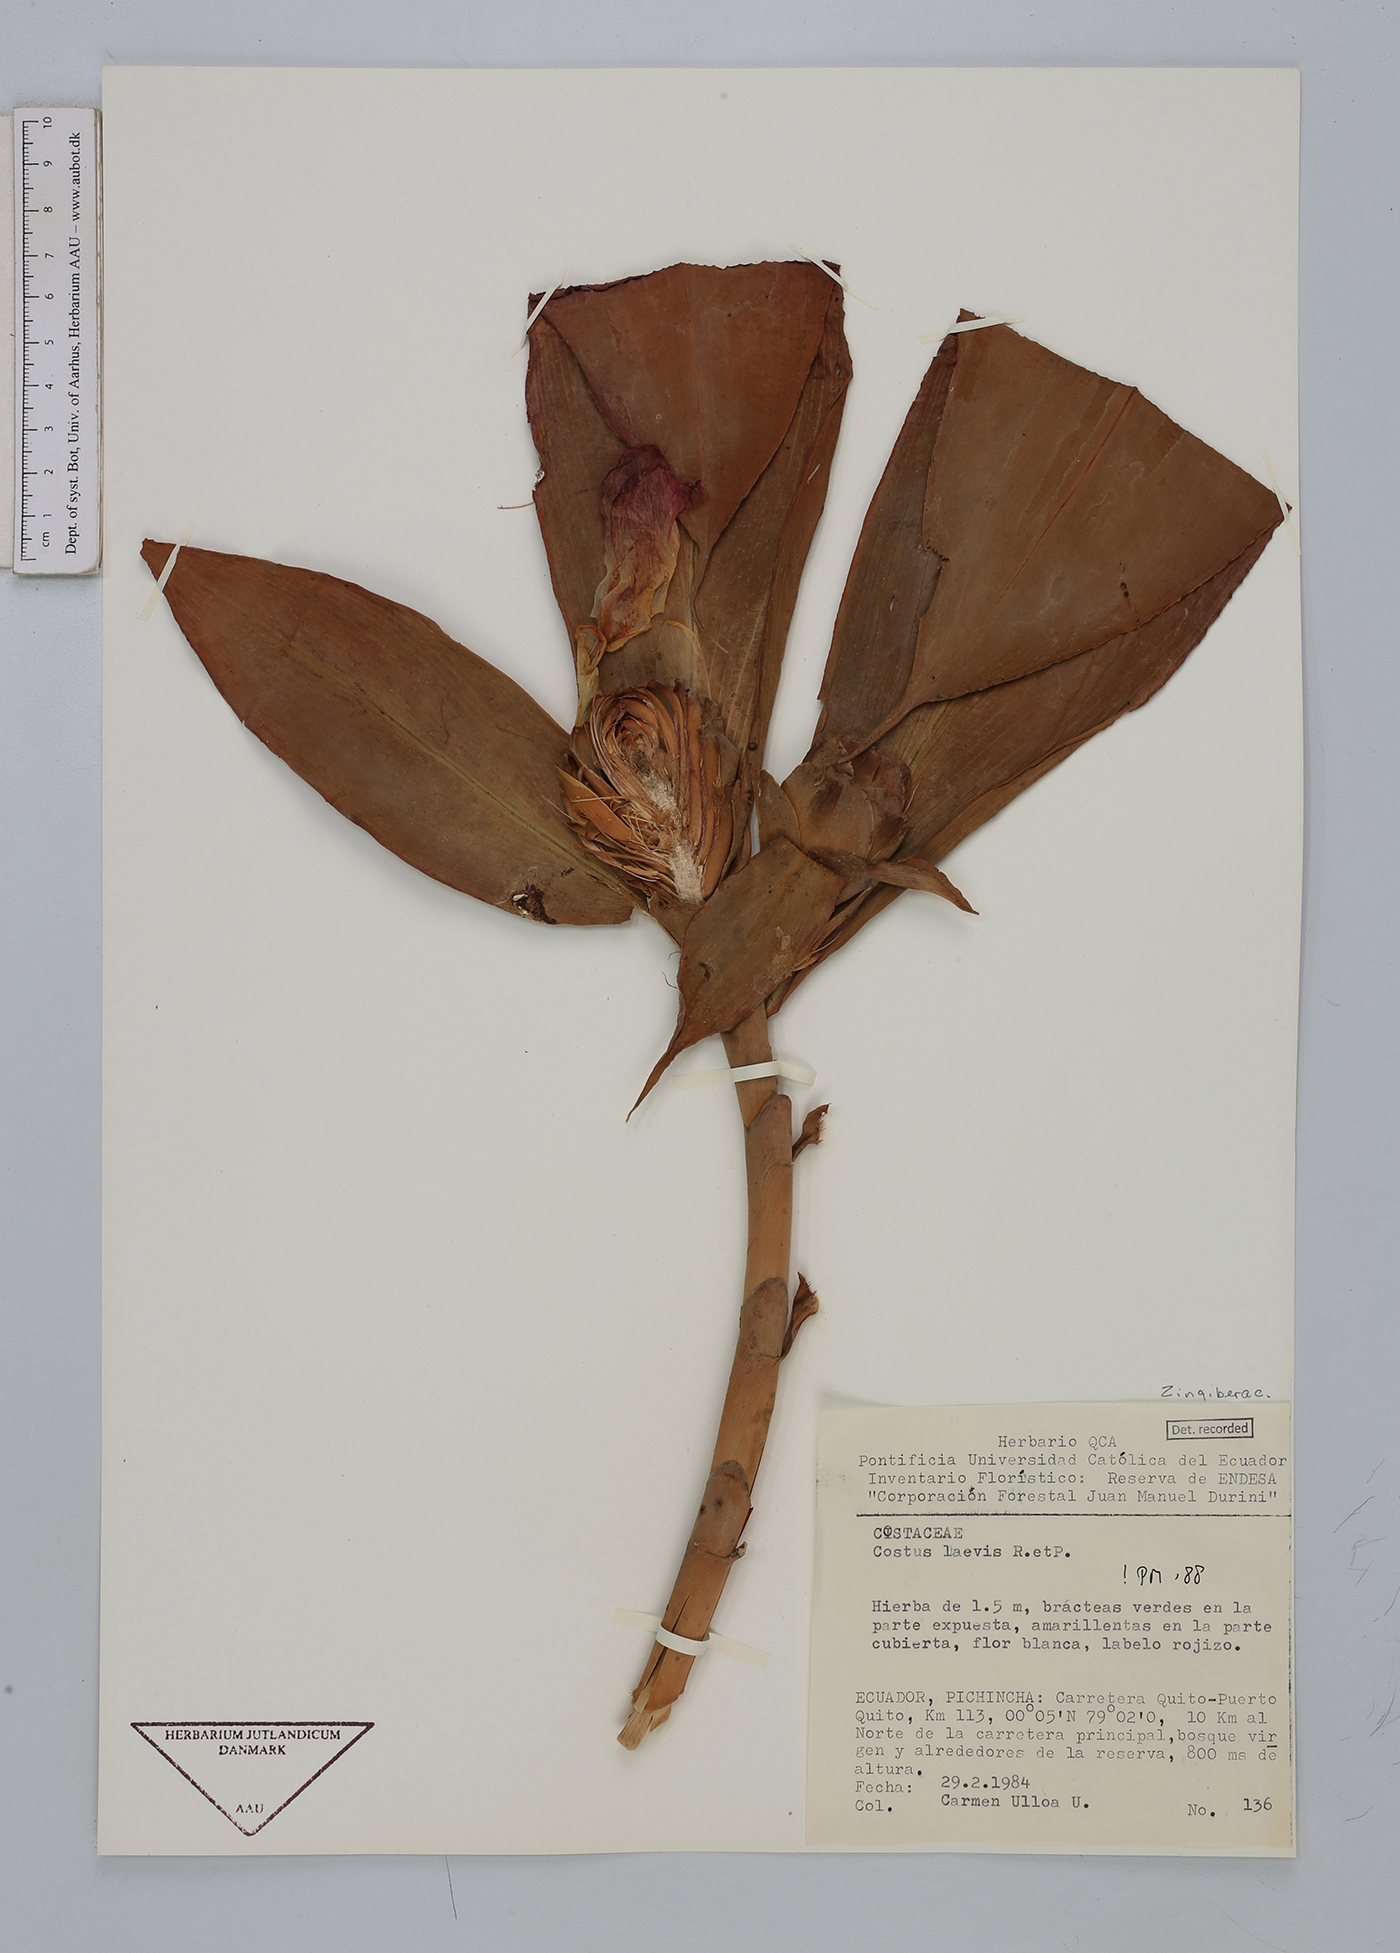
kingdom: Plantae
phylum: Tracheophyta
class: Liliopsida
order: Zingiberales
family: Costaceae
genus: Costus
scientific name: Costus laevis
